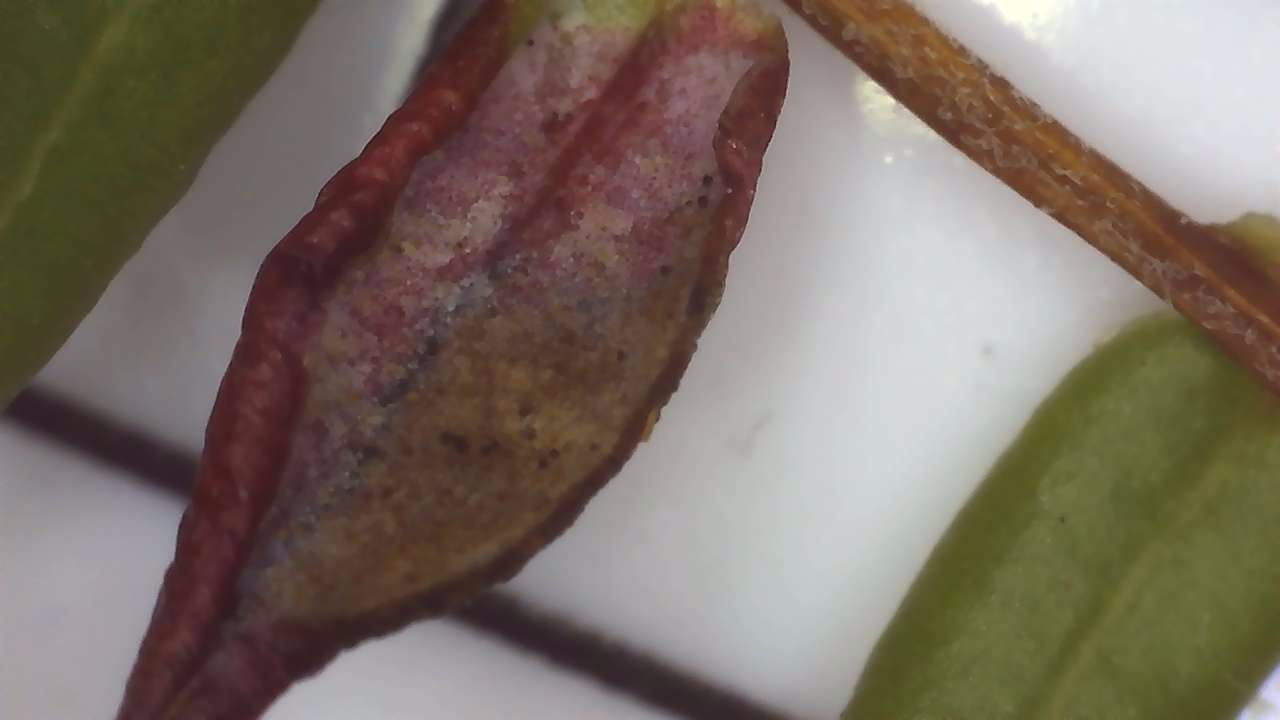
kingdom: Fungi
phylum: Basidiomycota
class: Exobasidiomycetes
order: Exobasidiales
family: Exobasidiaceae
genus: Exobasidium
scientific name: Exobasidium rostrupii
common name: tranebærblad-bøllesvamp
